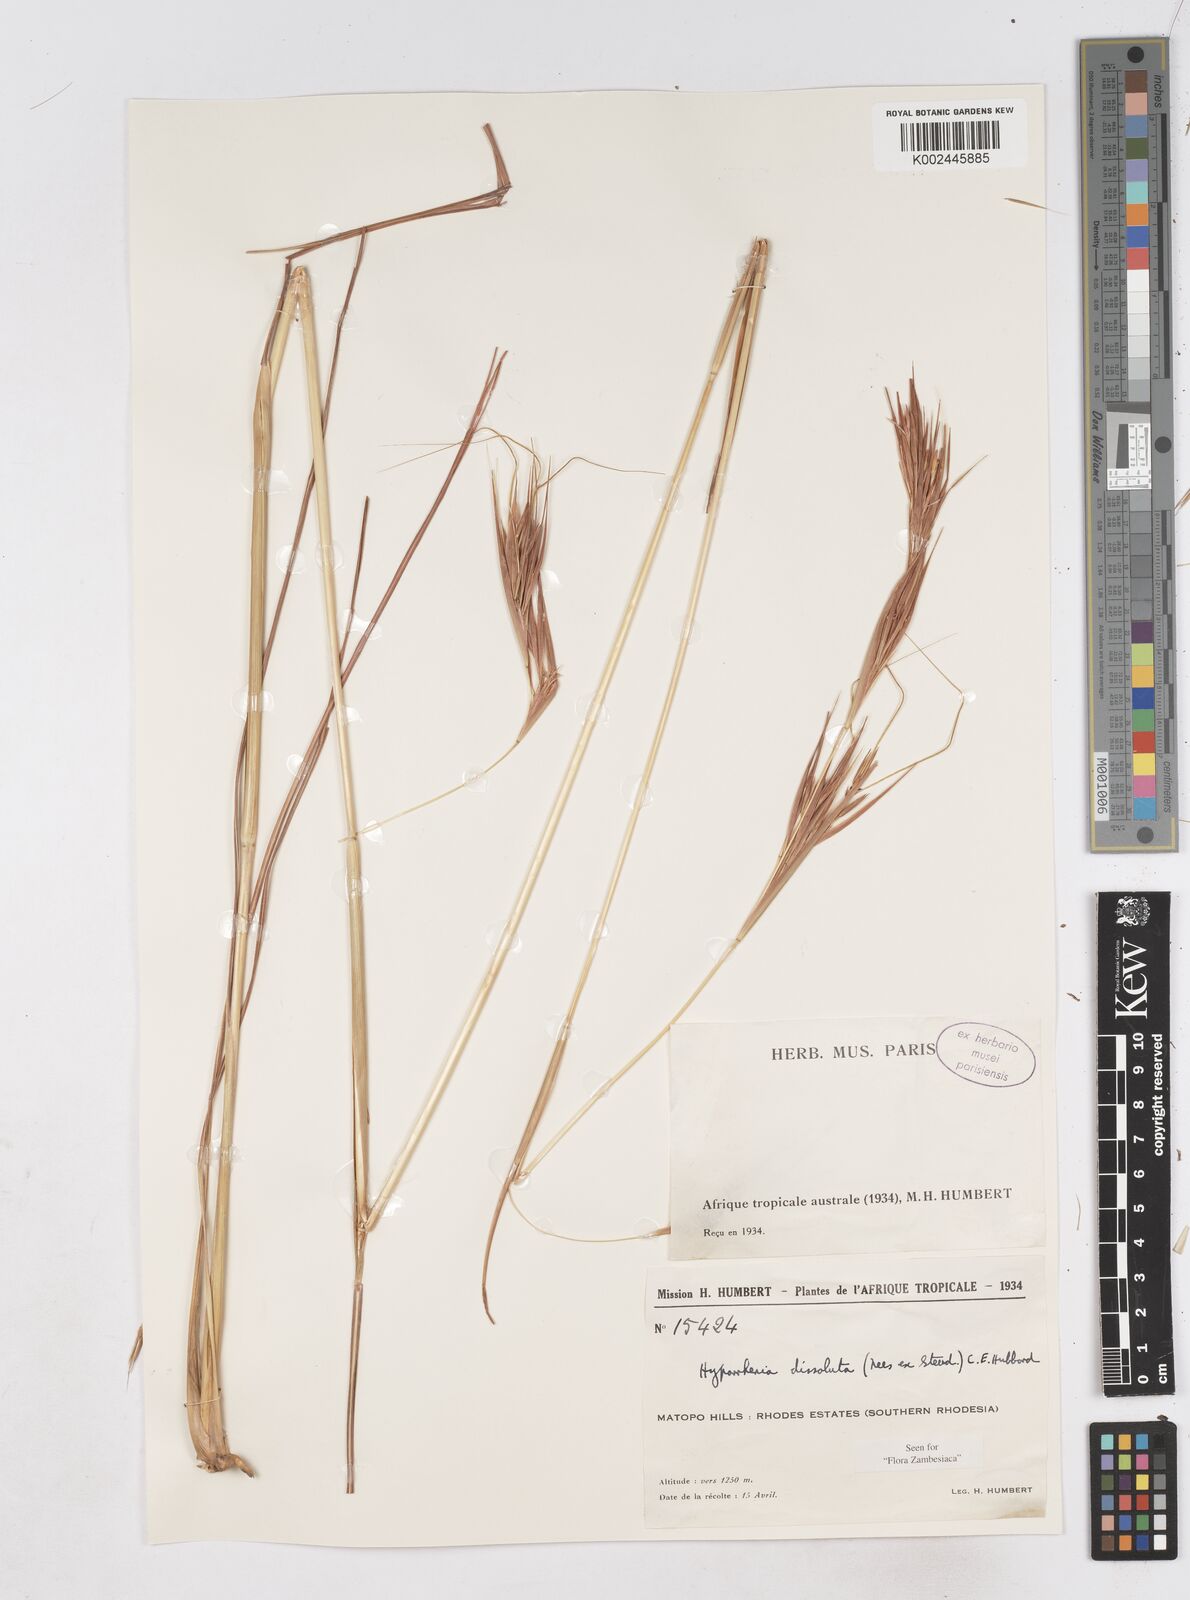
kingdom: Plantae
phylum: Tracheophyta
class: Liliopsida
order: Poales
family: Poaceae
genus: Hyperthelia
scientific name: Hyperthelia dissoluta
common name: Yellow thatching grass
